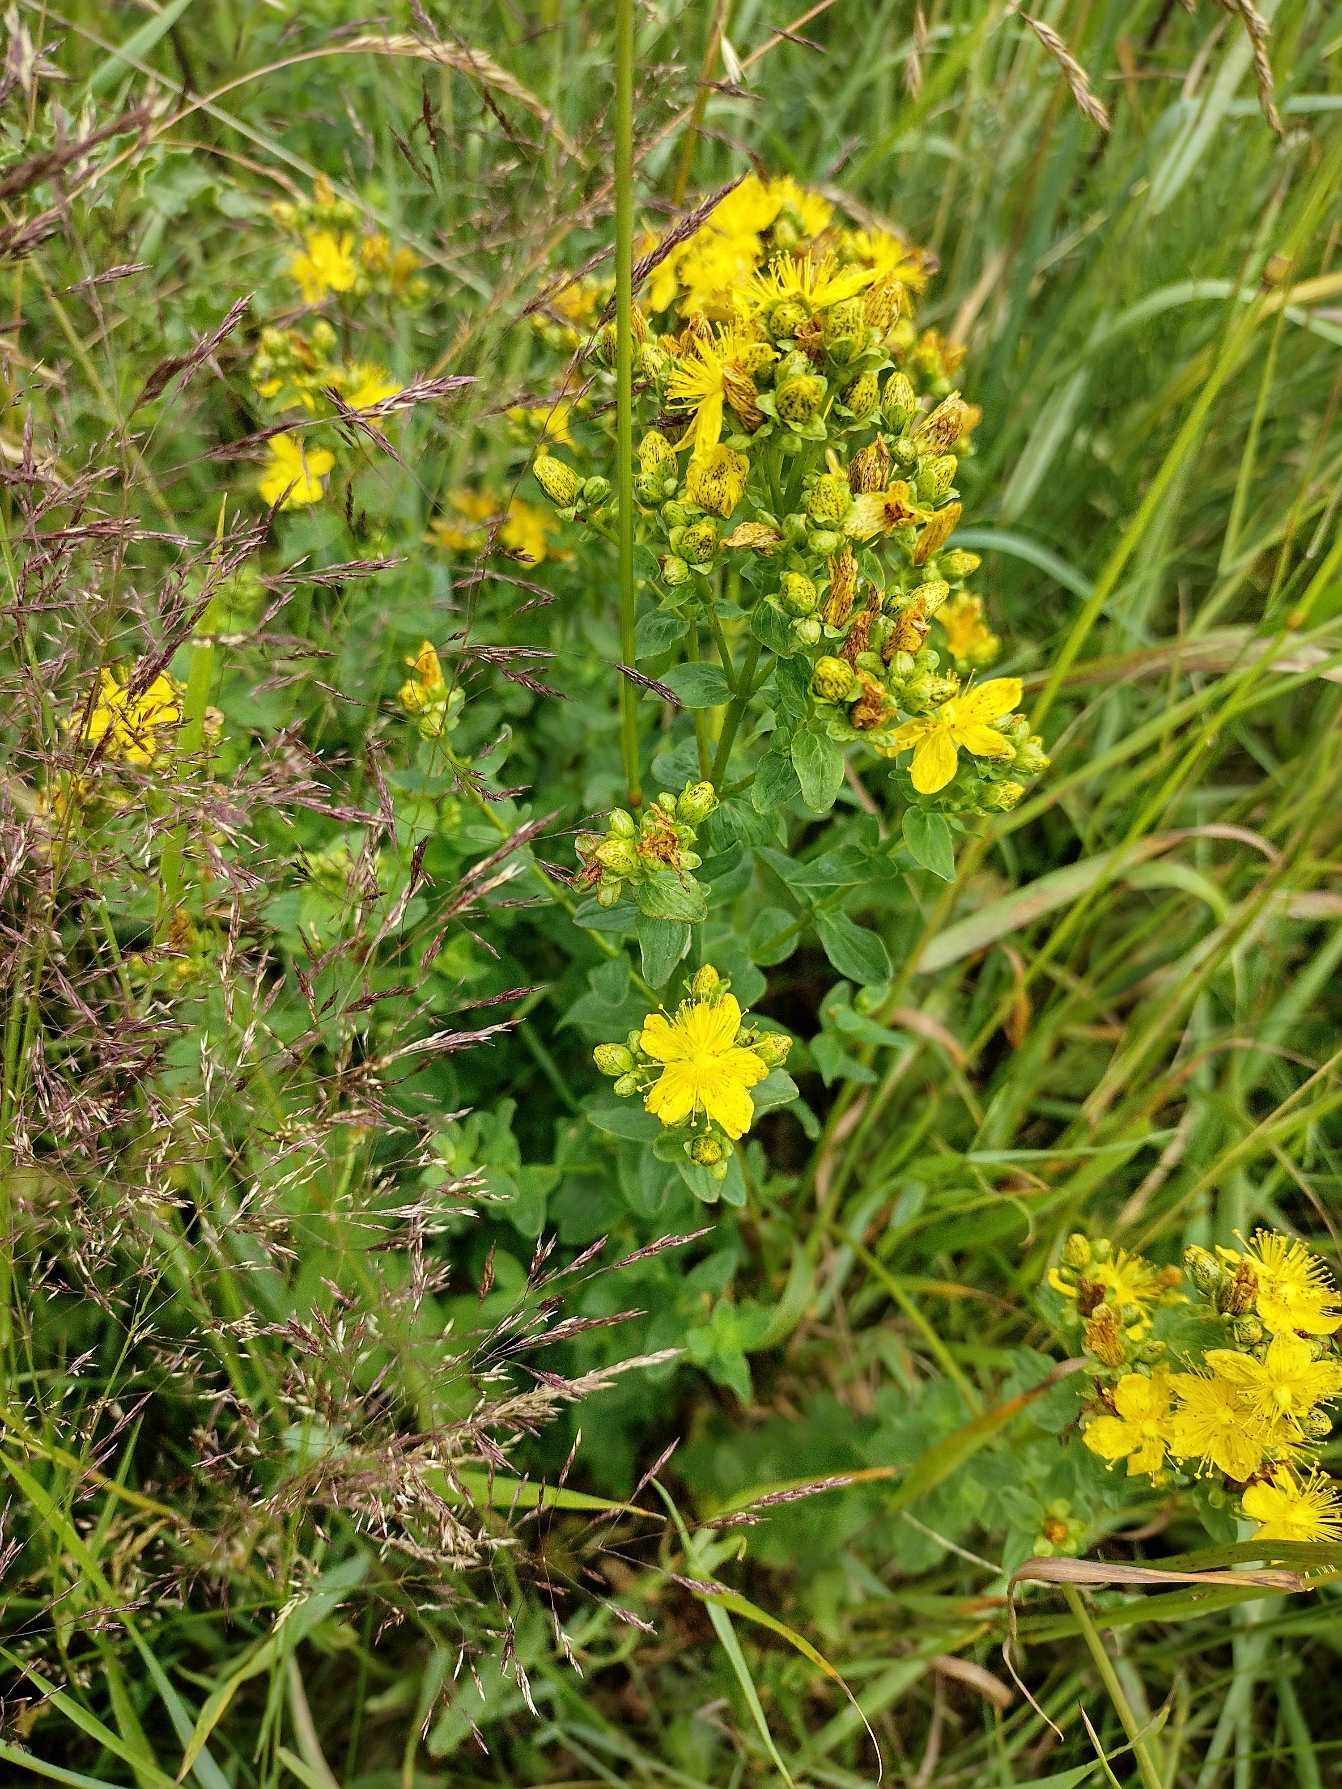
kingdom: Plantae
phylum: Tracheophyta
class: Magnoliopsida
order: Malpighiales
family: Hypericaceae
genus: Hypericum
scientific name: Hypericum maculatum
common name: Kantet perikon
